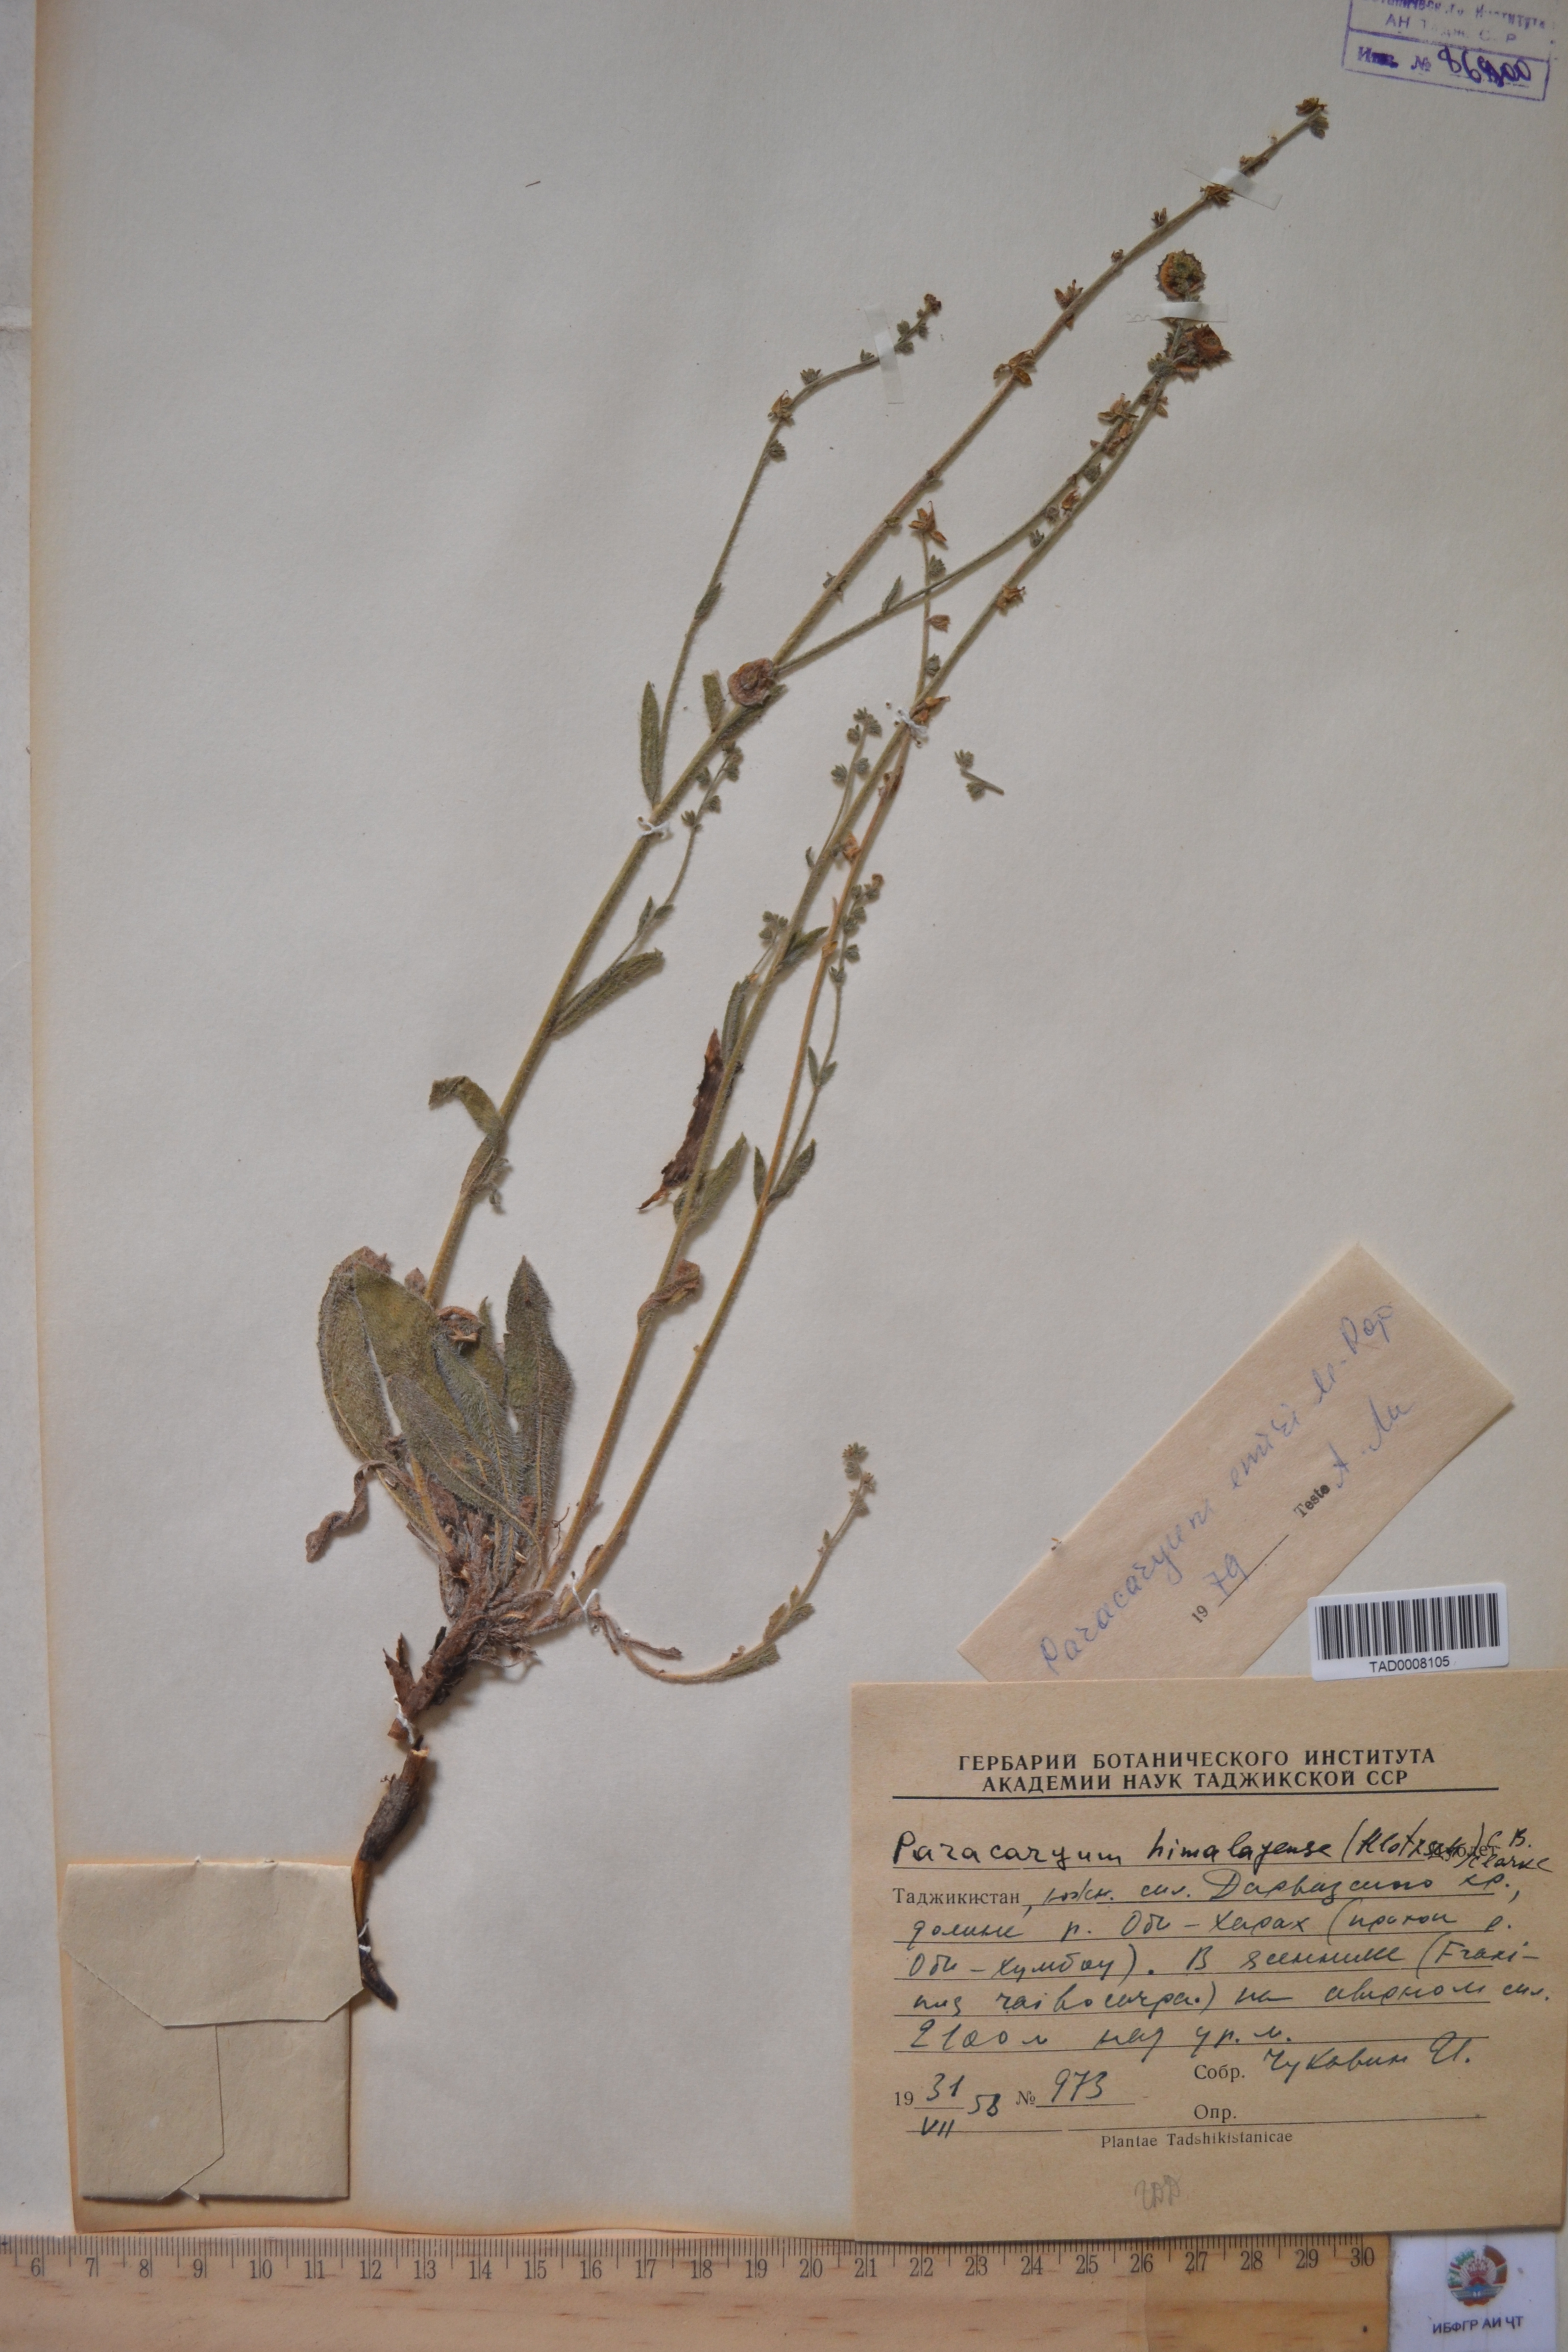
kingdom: Plantae
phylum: Tracheophyta
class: Magnoliopsida
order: Boraginales
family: Boraginaceae
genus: Paracaryum
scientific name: Paracaryum himalayense
